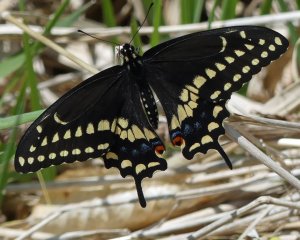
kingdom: Animalia
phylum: Arthropoda
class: Insecta
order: Lepidoptera
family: Papilionidae
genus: Papilio
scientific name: Papilio polyxenes
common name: Black Swallowtail
